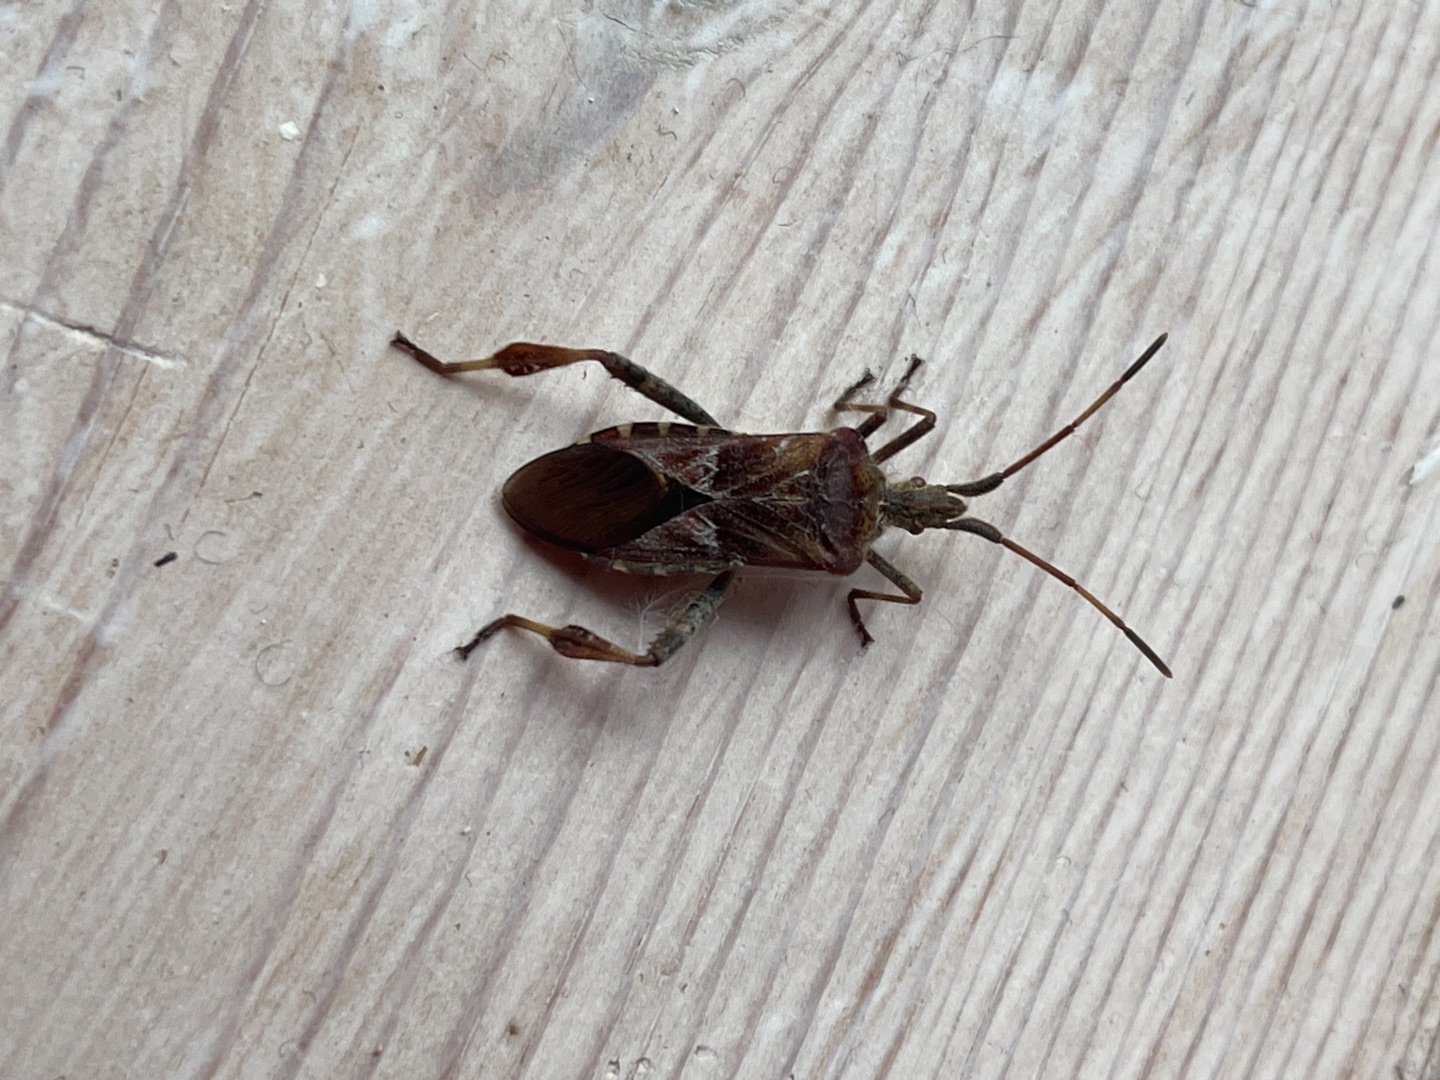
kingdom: Animalia
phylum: Arthropoda
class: Insecta
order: Hemiptera
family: Coreidae
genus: Leptoglossus
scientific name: Leptoglossus occidentalis
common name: Amerikansk fyrretæge
